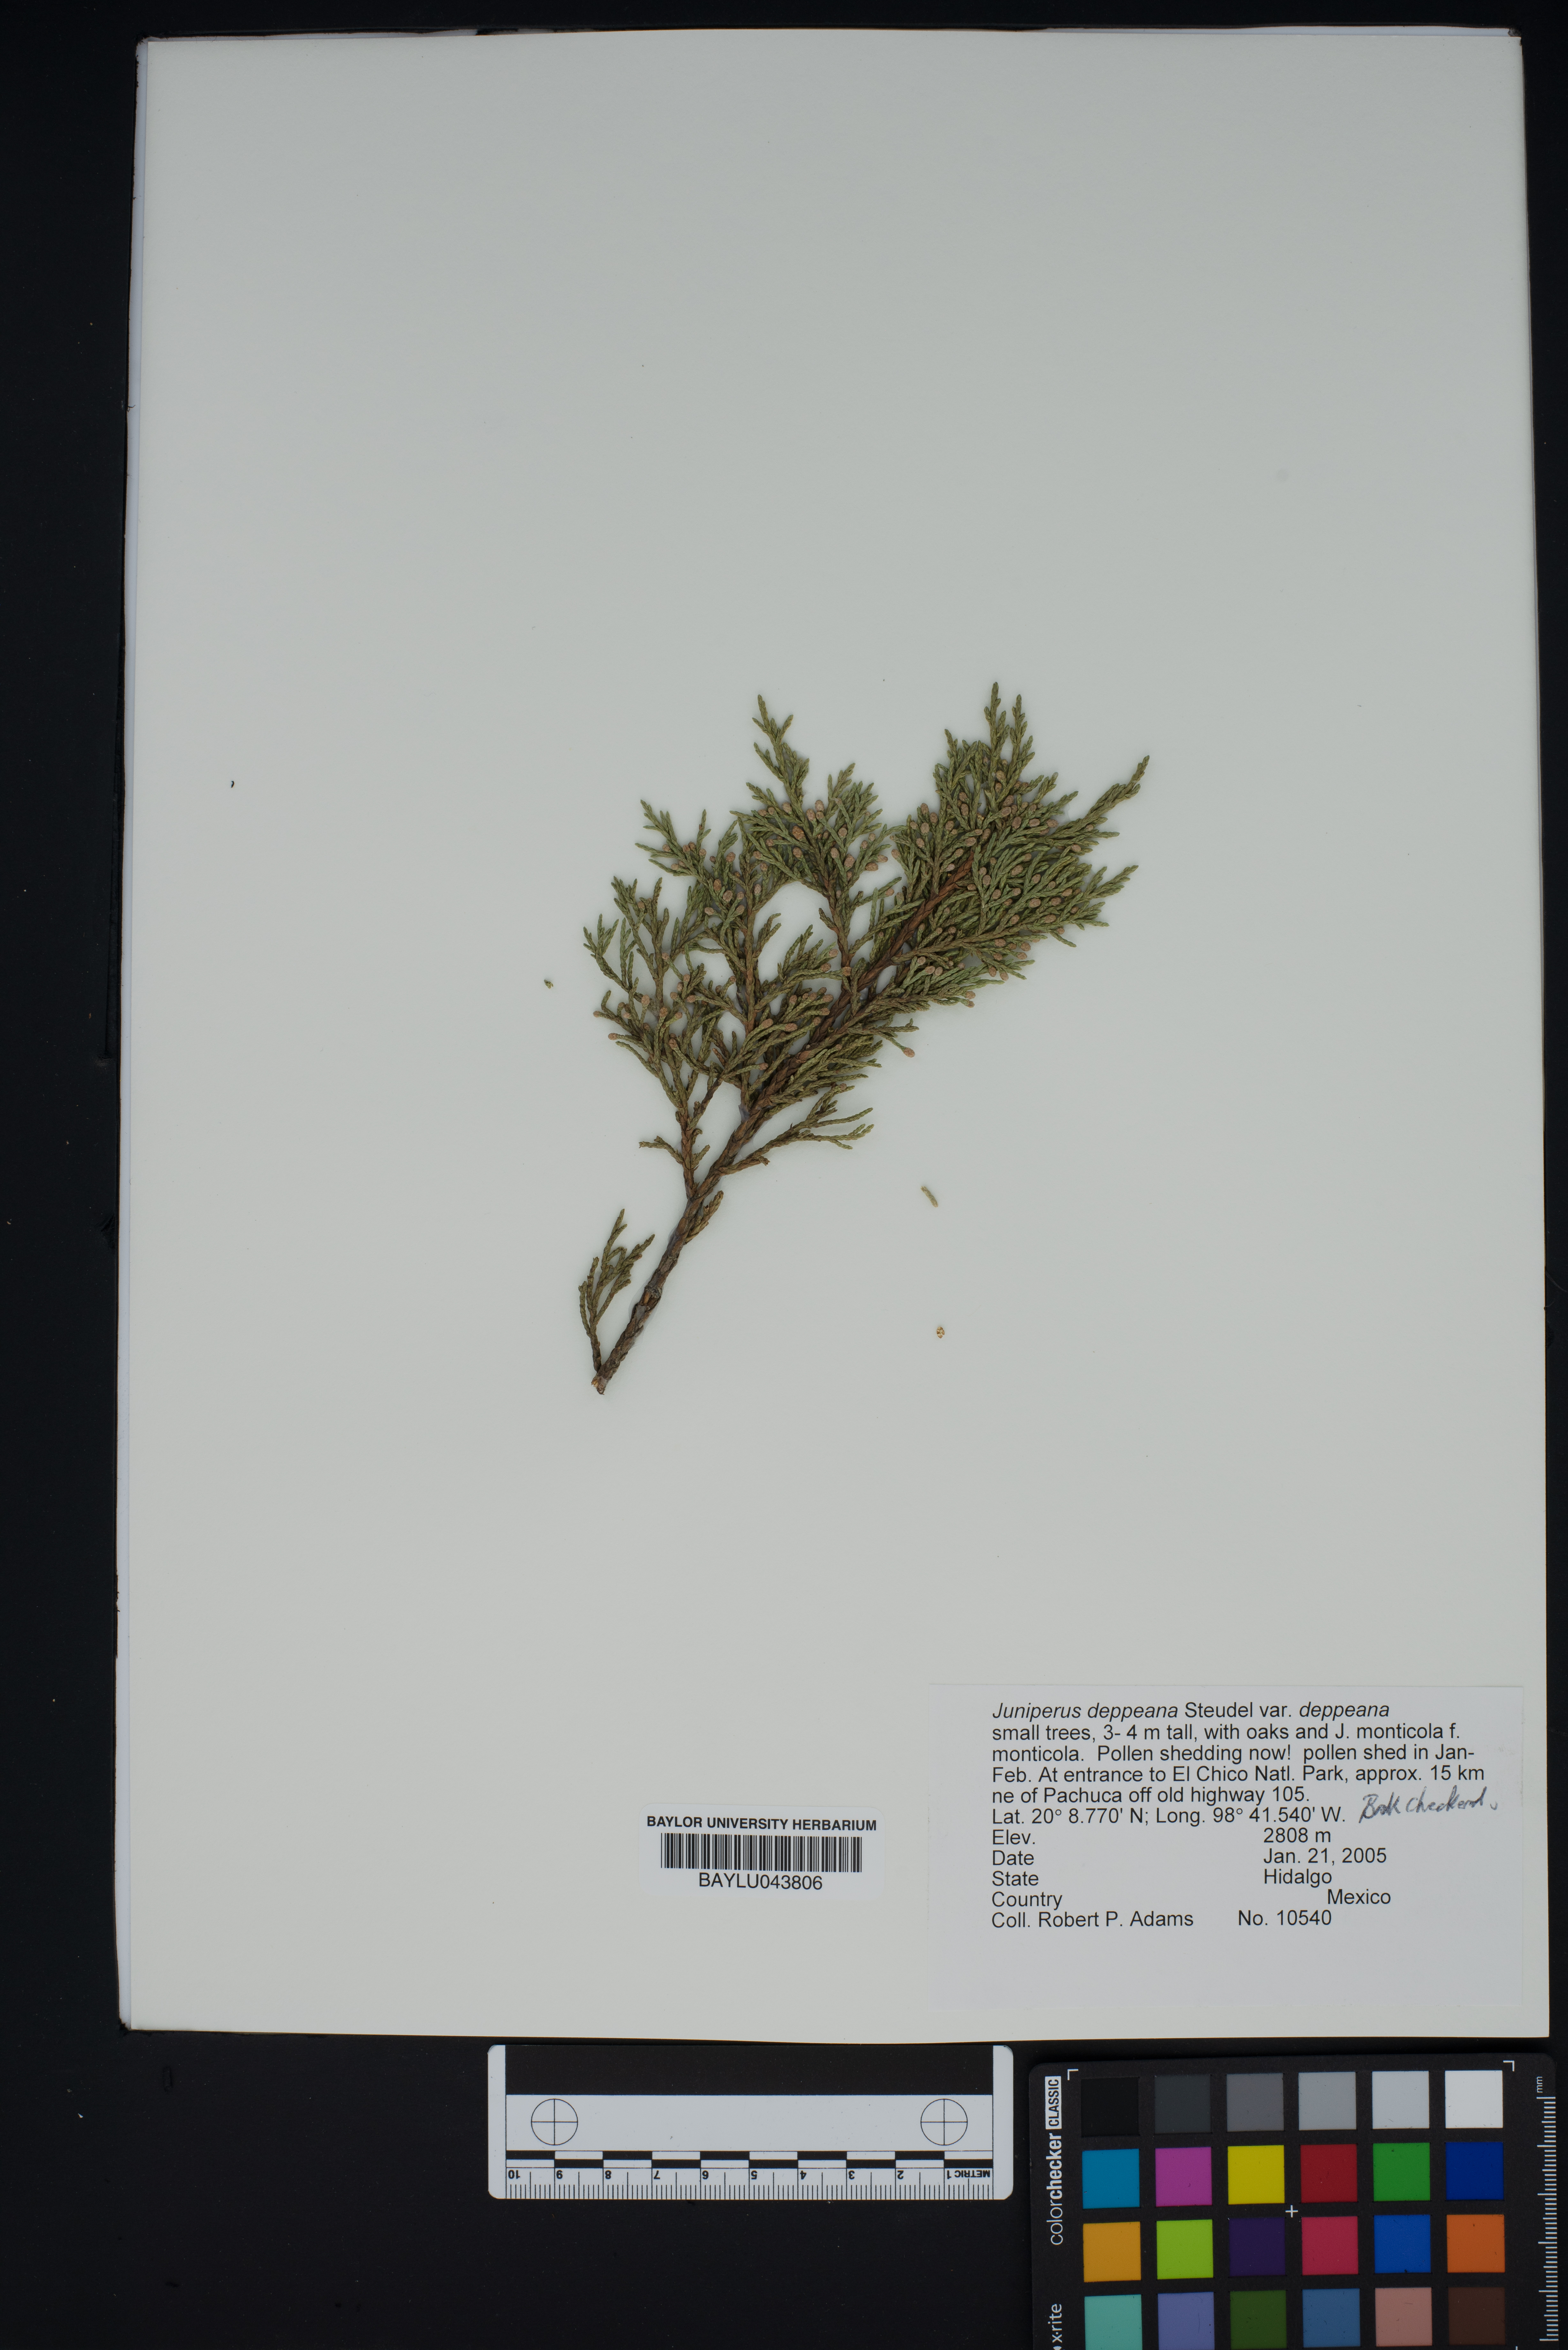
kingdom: Plantae
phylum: Tracheophyta
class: Pinopsida
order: Pinales
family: Cupressaceae
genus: Juniperus
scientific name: Juniperus deppeana
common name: Alligator juniper
